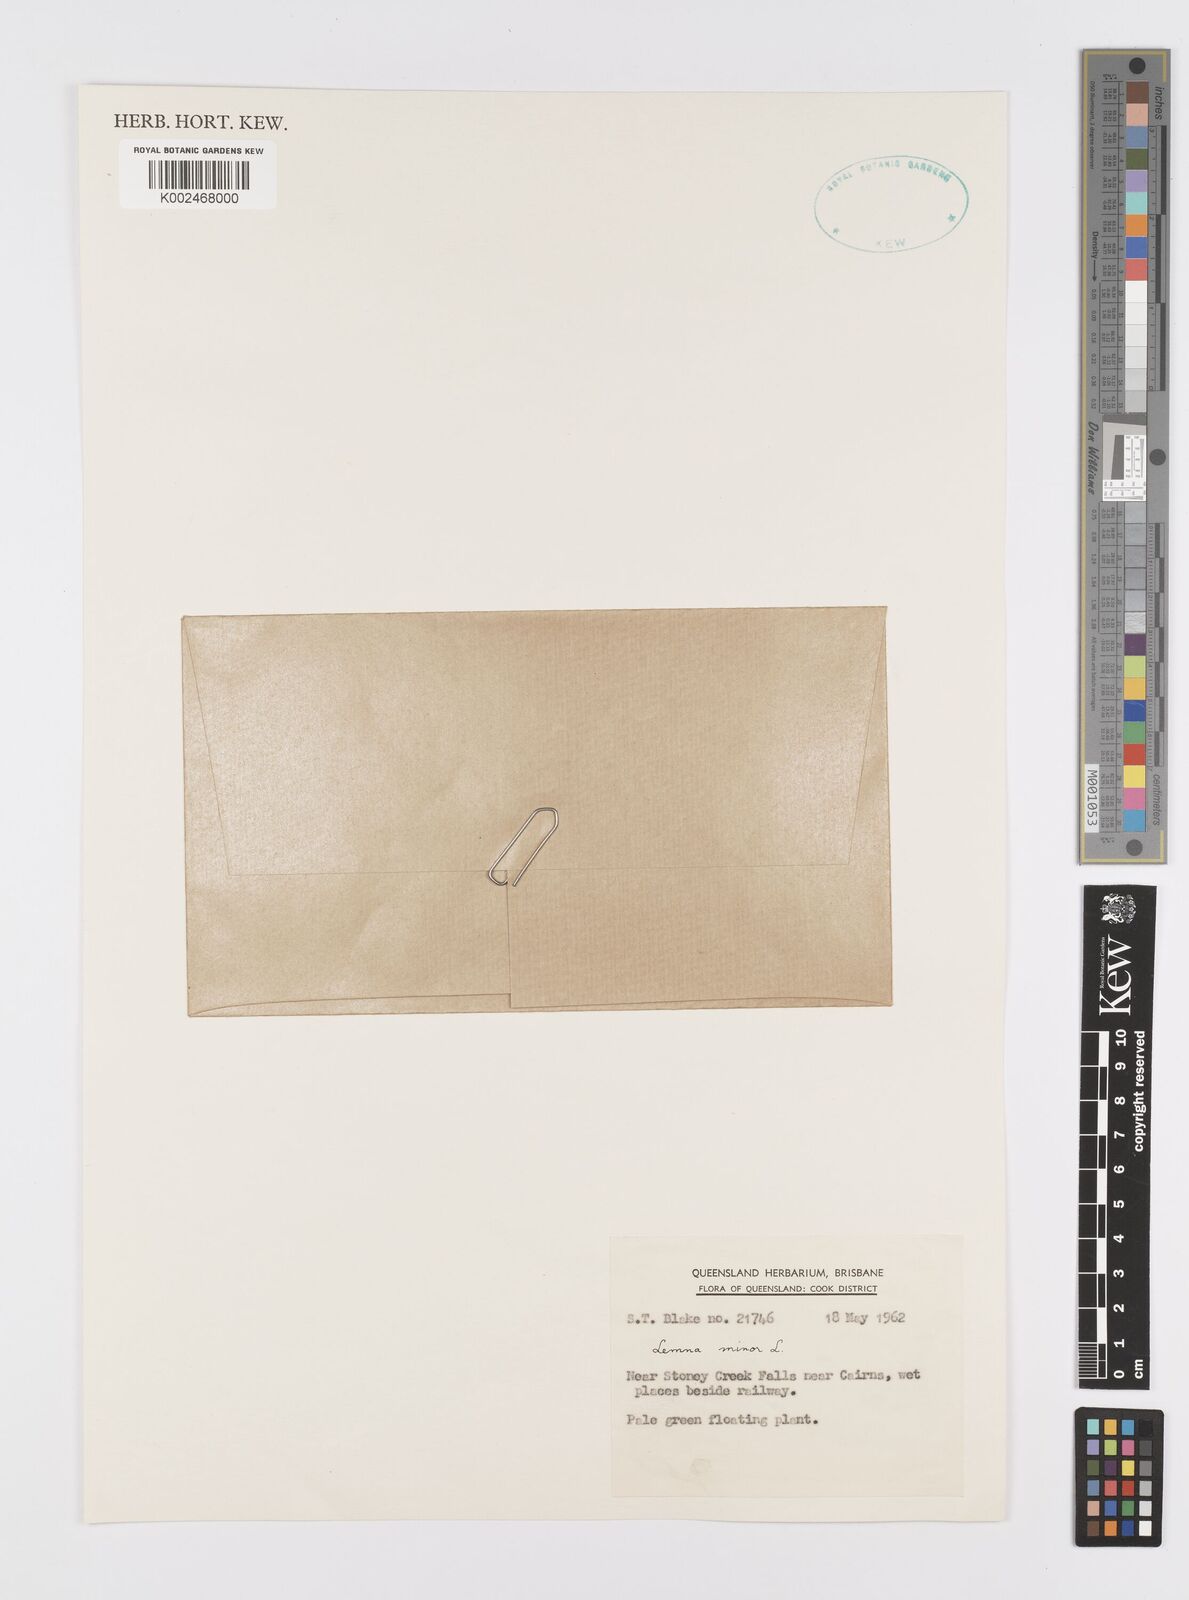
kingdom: Plantae
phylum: Tracheophyta
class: Liliopsida
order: Alismatales
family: Araceae
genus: Lemna
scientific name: Lemna minor
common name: Common duckweed
